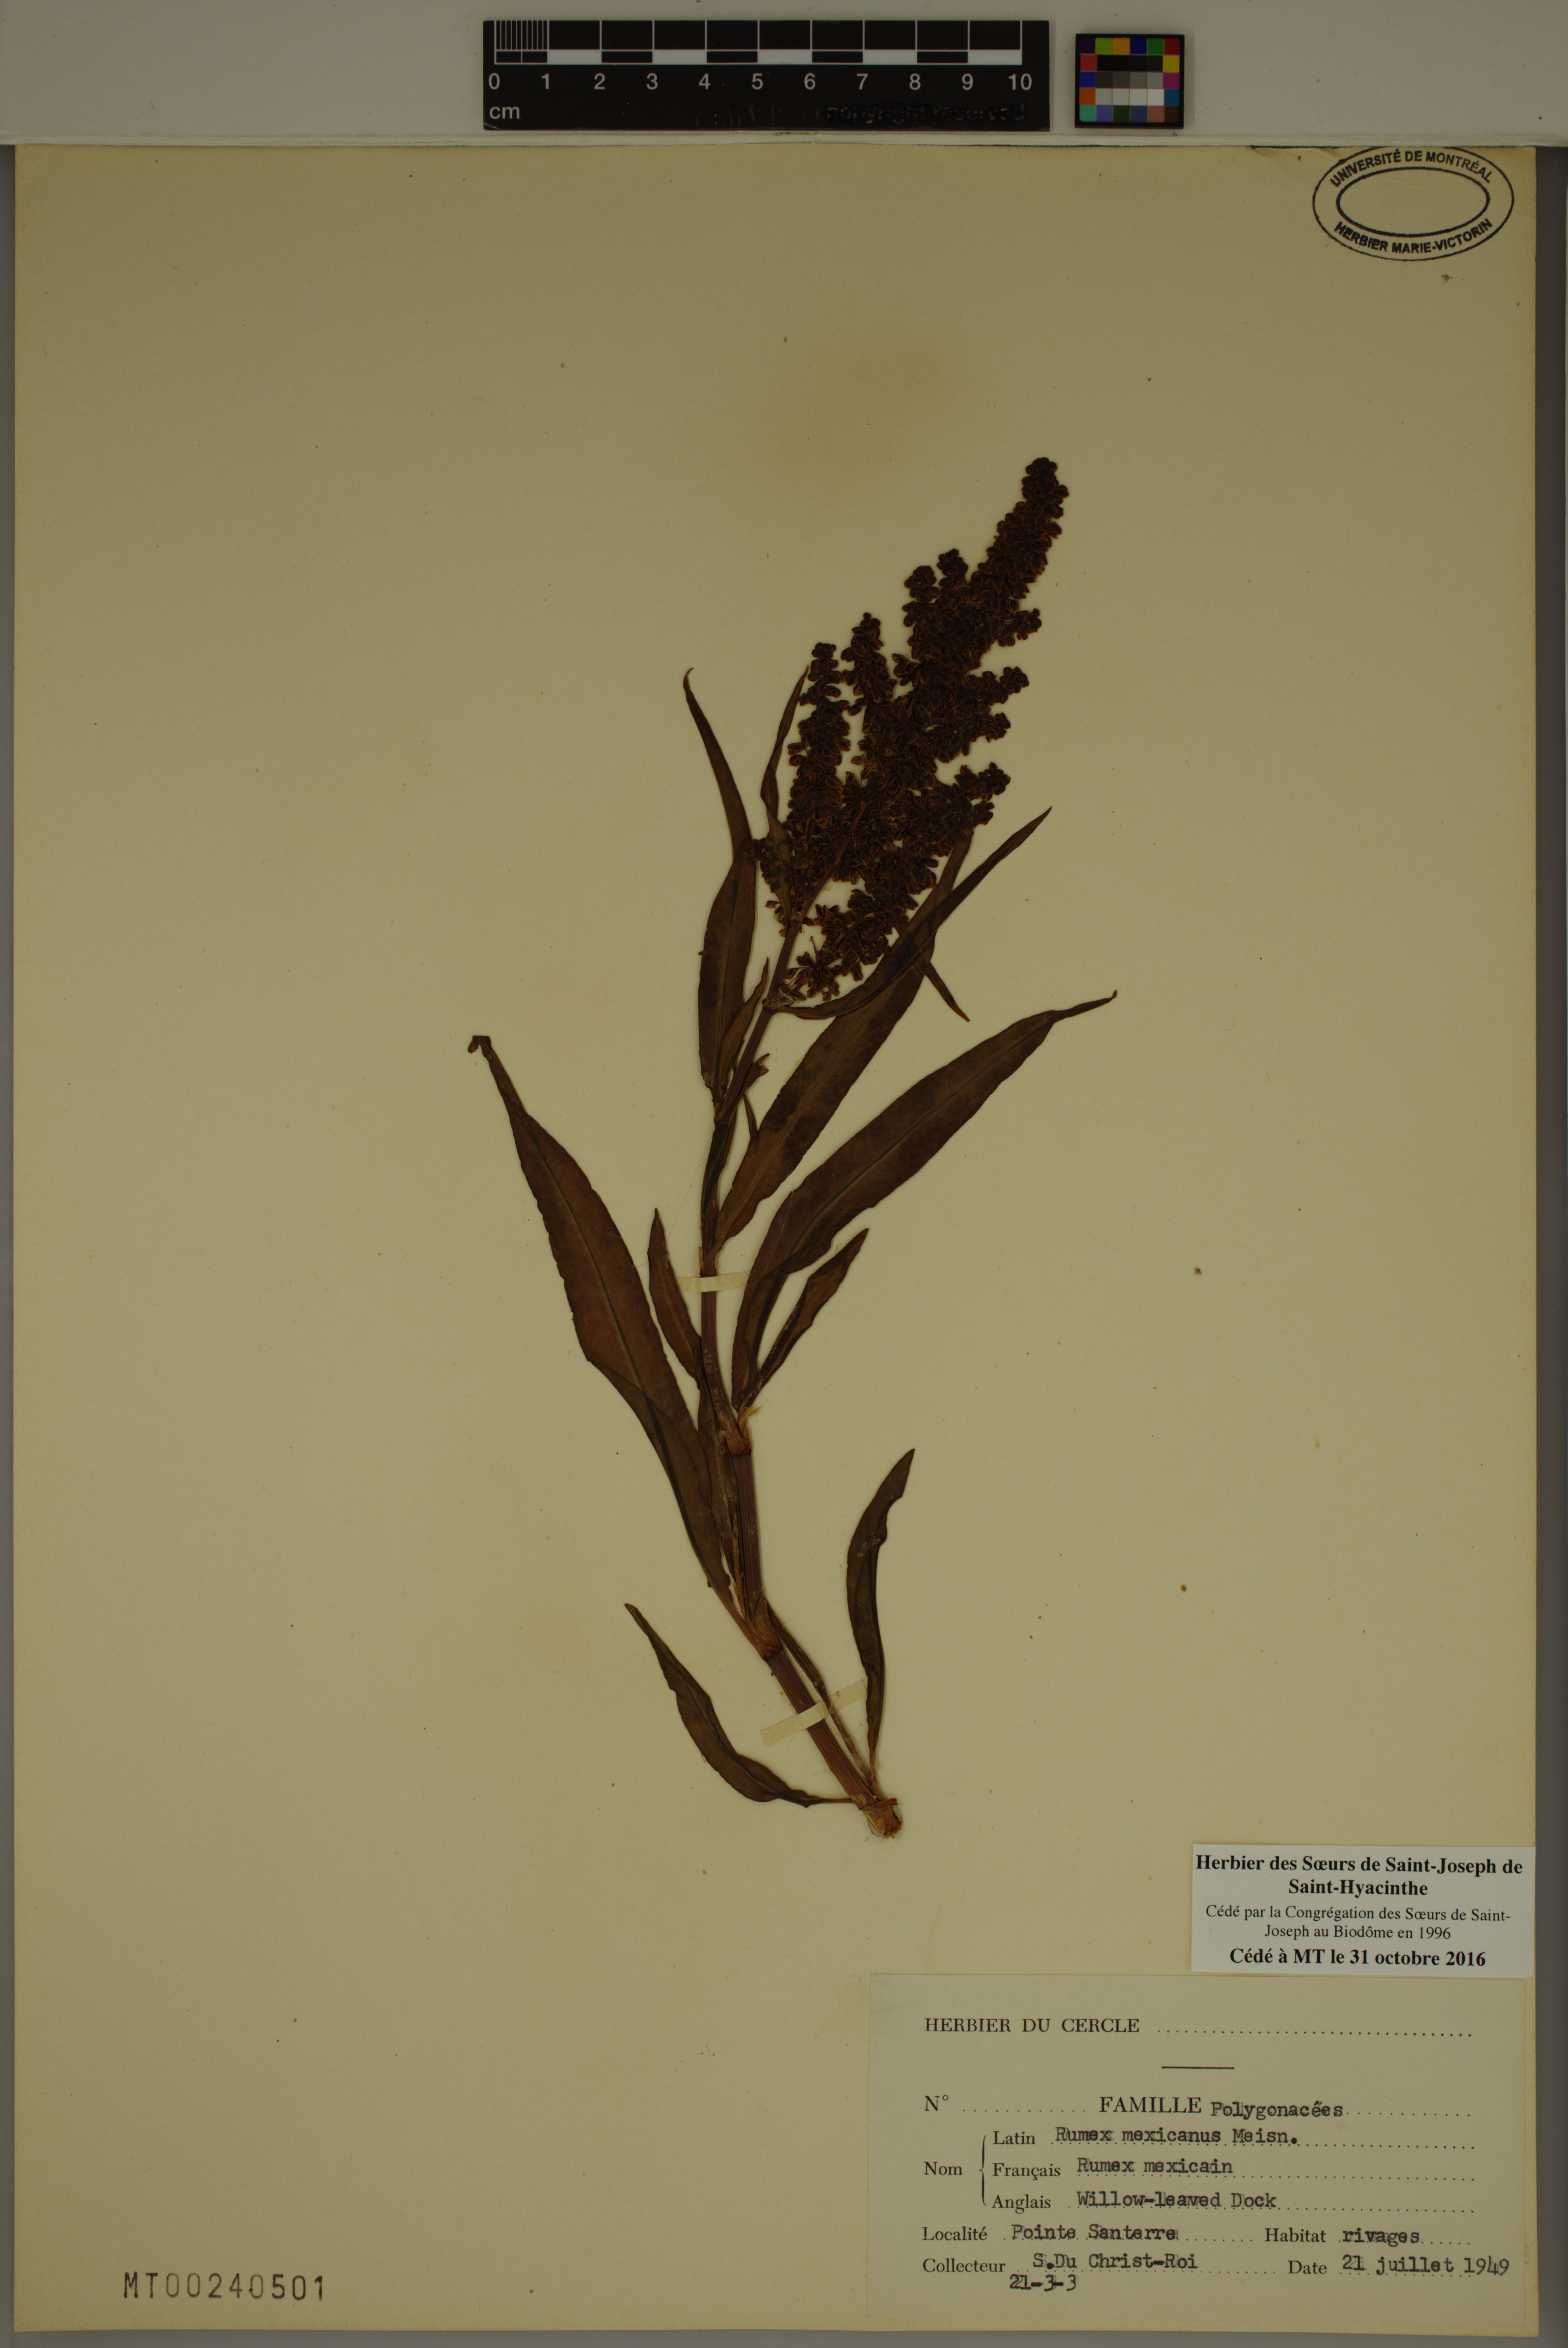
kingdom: Plantae
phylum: Tracheophyta
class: Magnoliopsida
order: Caryophyllales
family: Polygonaceae
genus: Rumex
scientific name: Rumex triangulivalvis
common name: Triangular-valve dock
